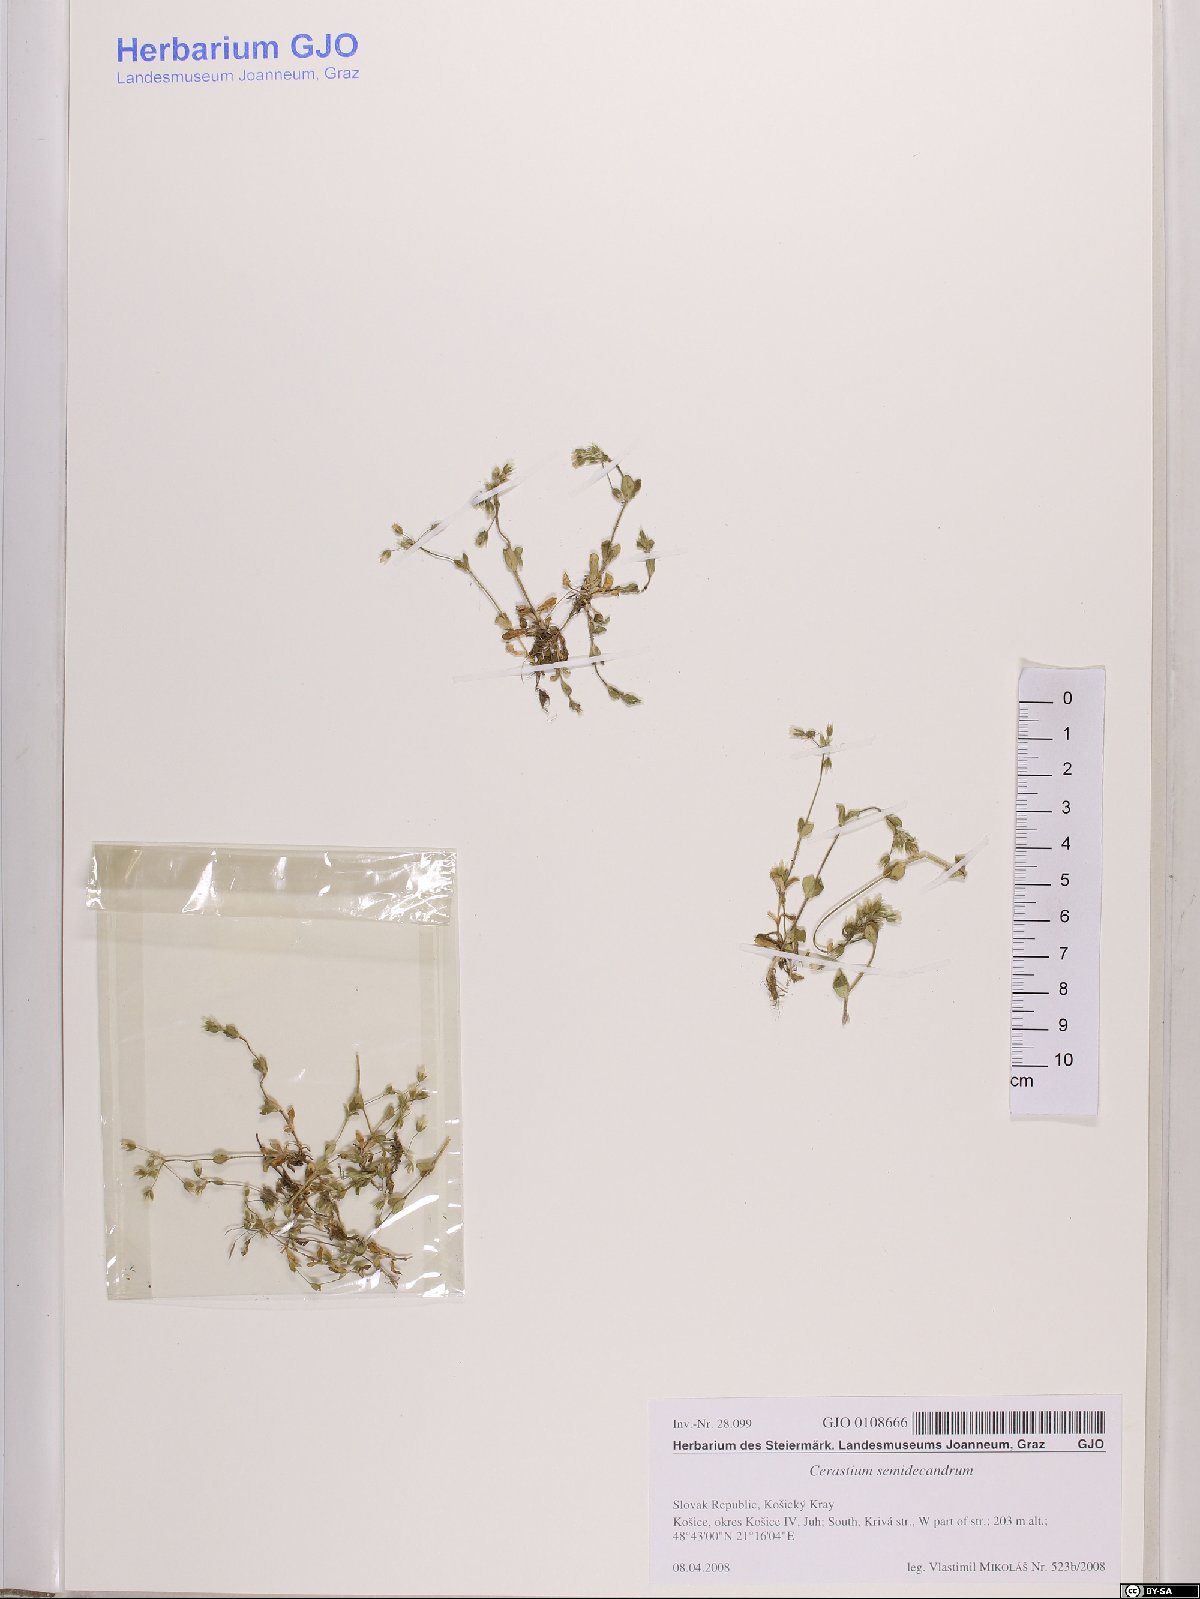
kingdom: Plantae
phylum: Tracheophyta
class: Magnoliopsida
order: Caryophyllales
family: Caryophyllaceae
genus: Cerastium
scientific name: Cerastium semidecandrum
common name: Little mouse-ear
